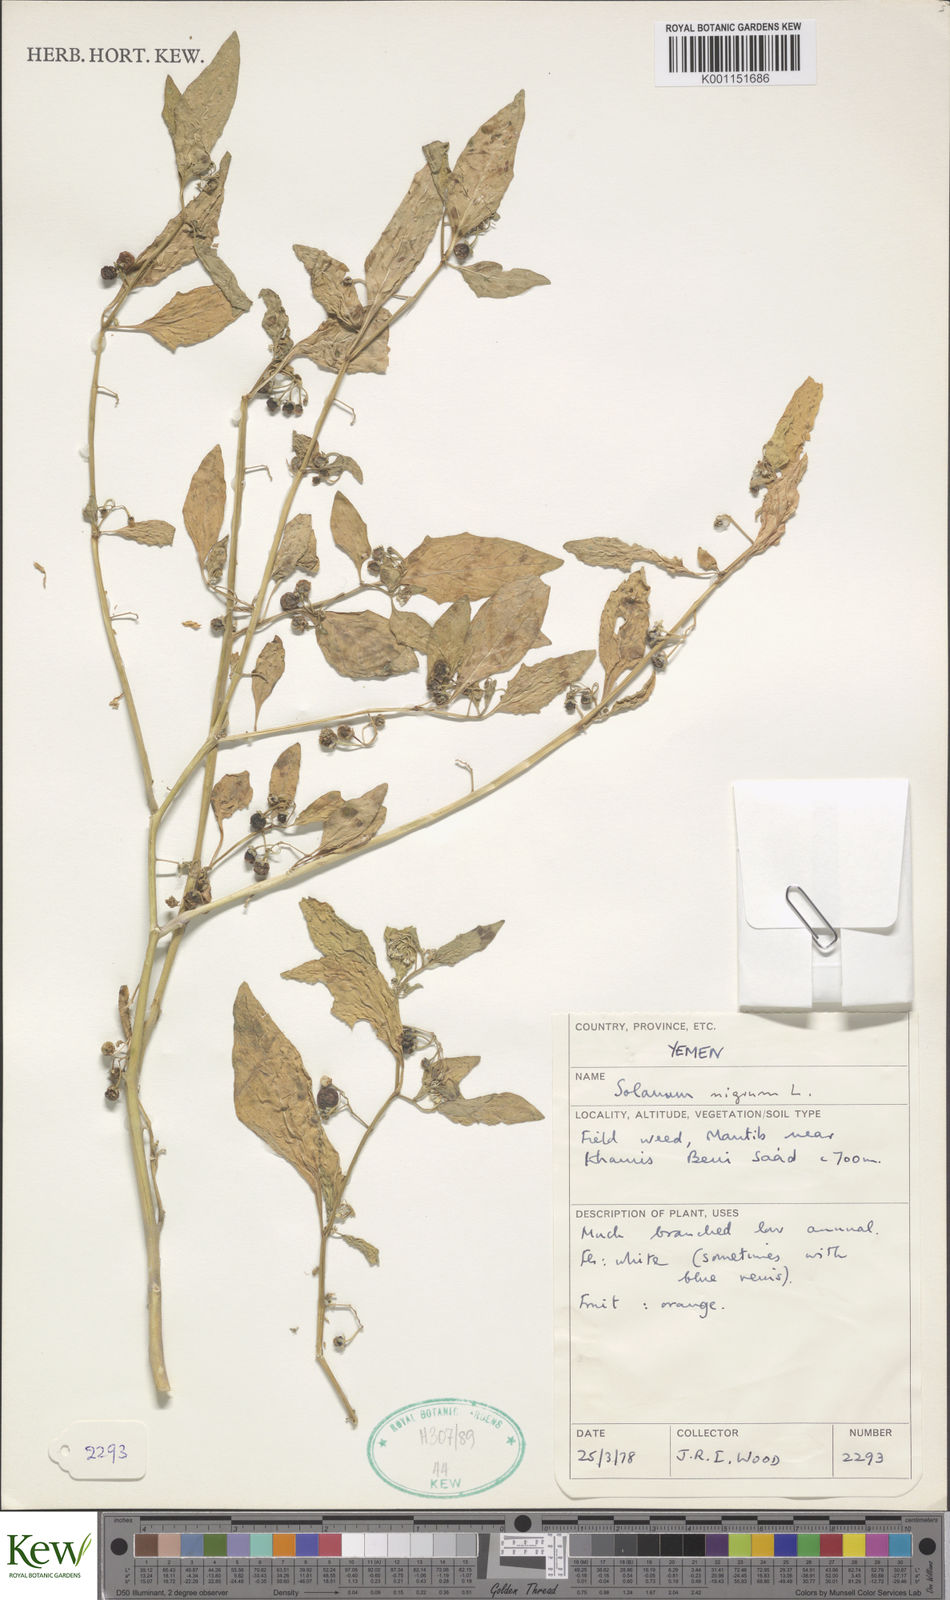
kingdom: Plantae
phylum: Tracheophyta
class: Magnoliopsida
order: Solanales
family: Solanaceae
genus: Solanum
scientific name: Solanum nigrum
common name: Black nightshade
